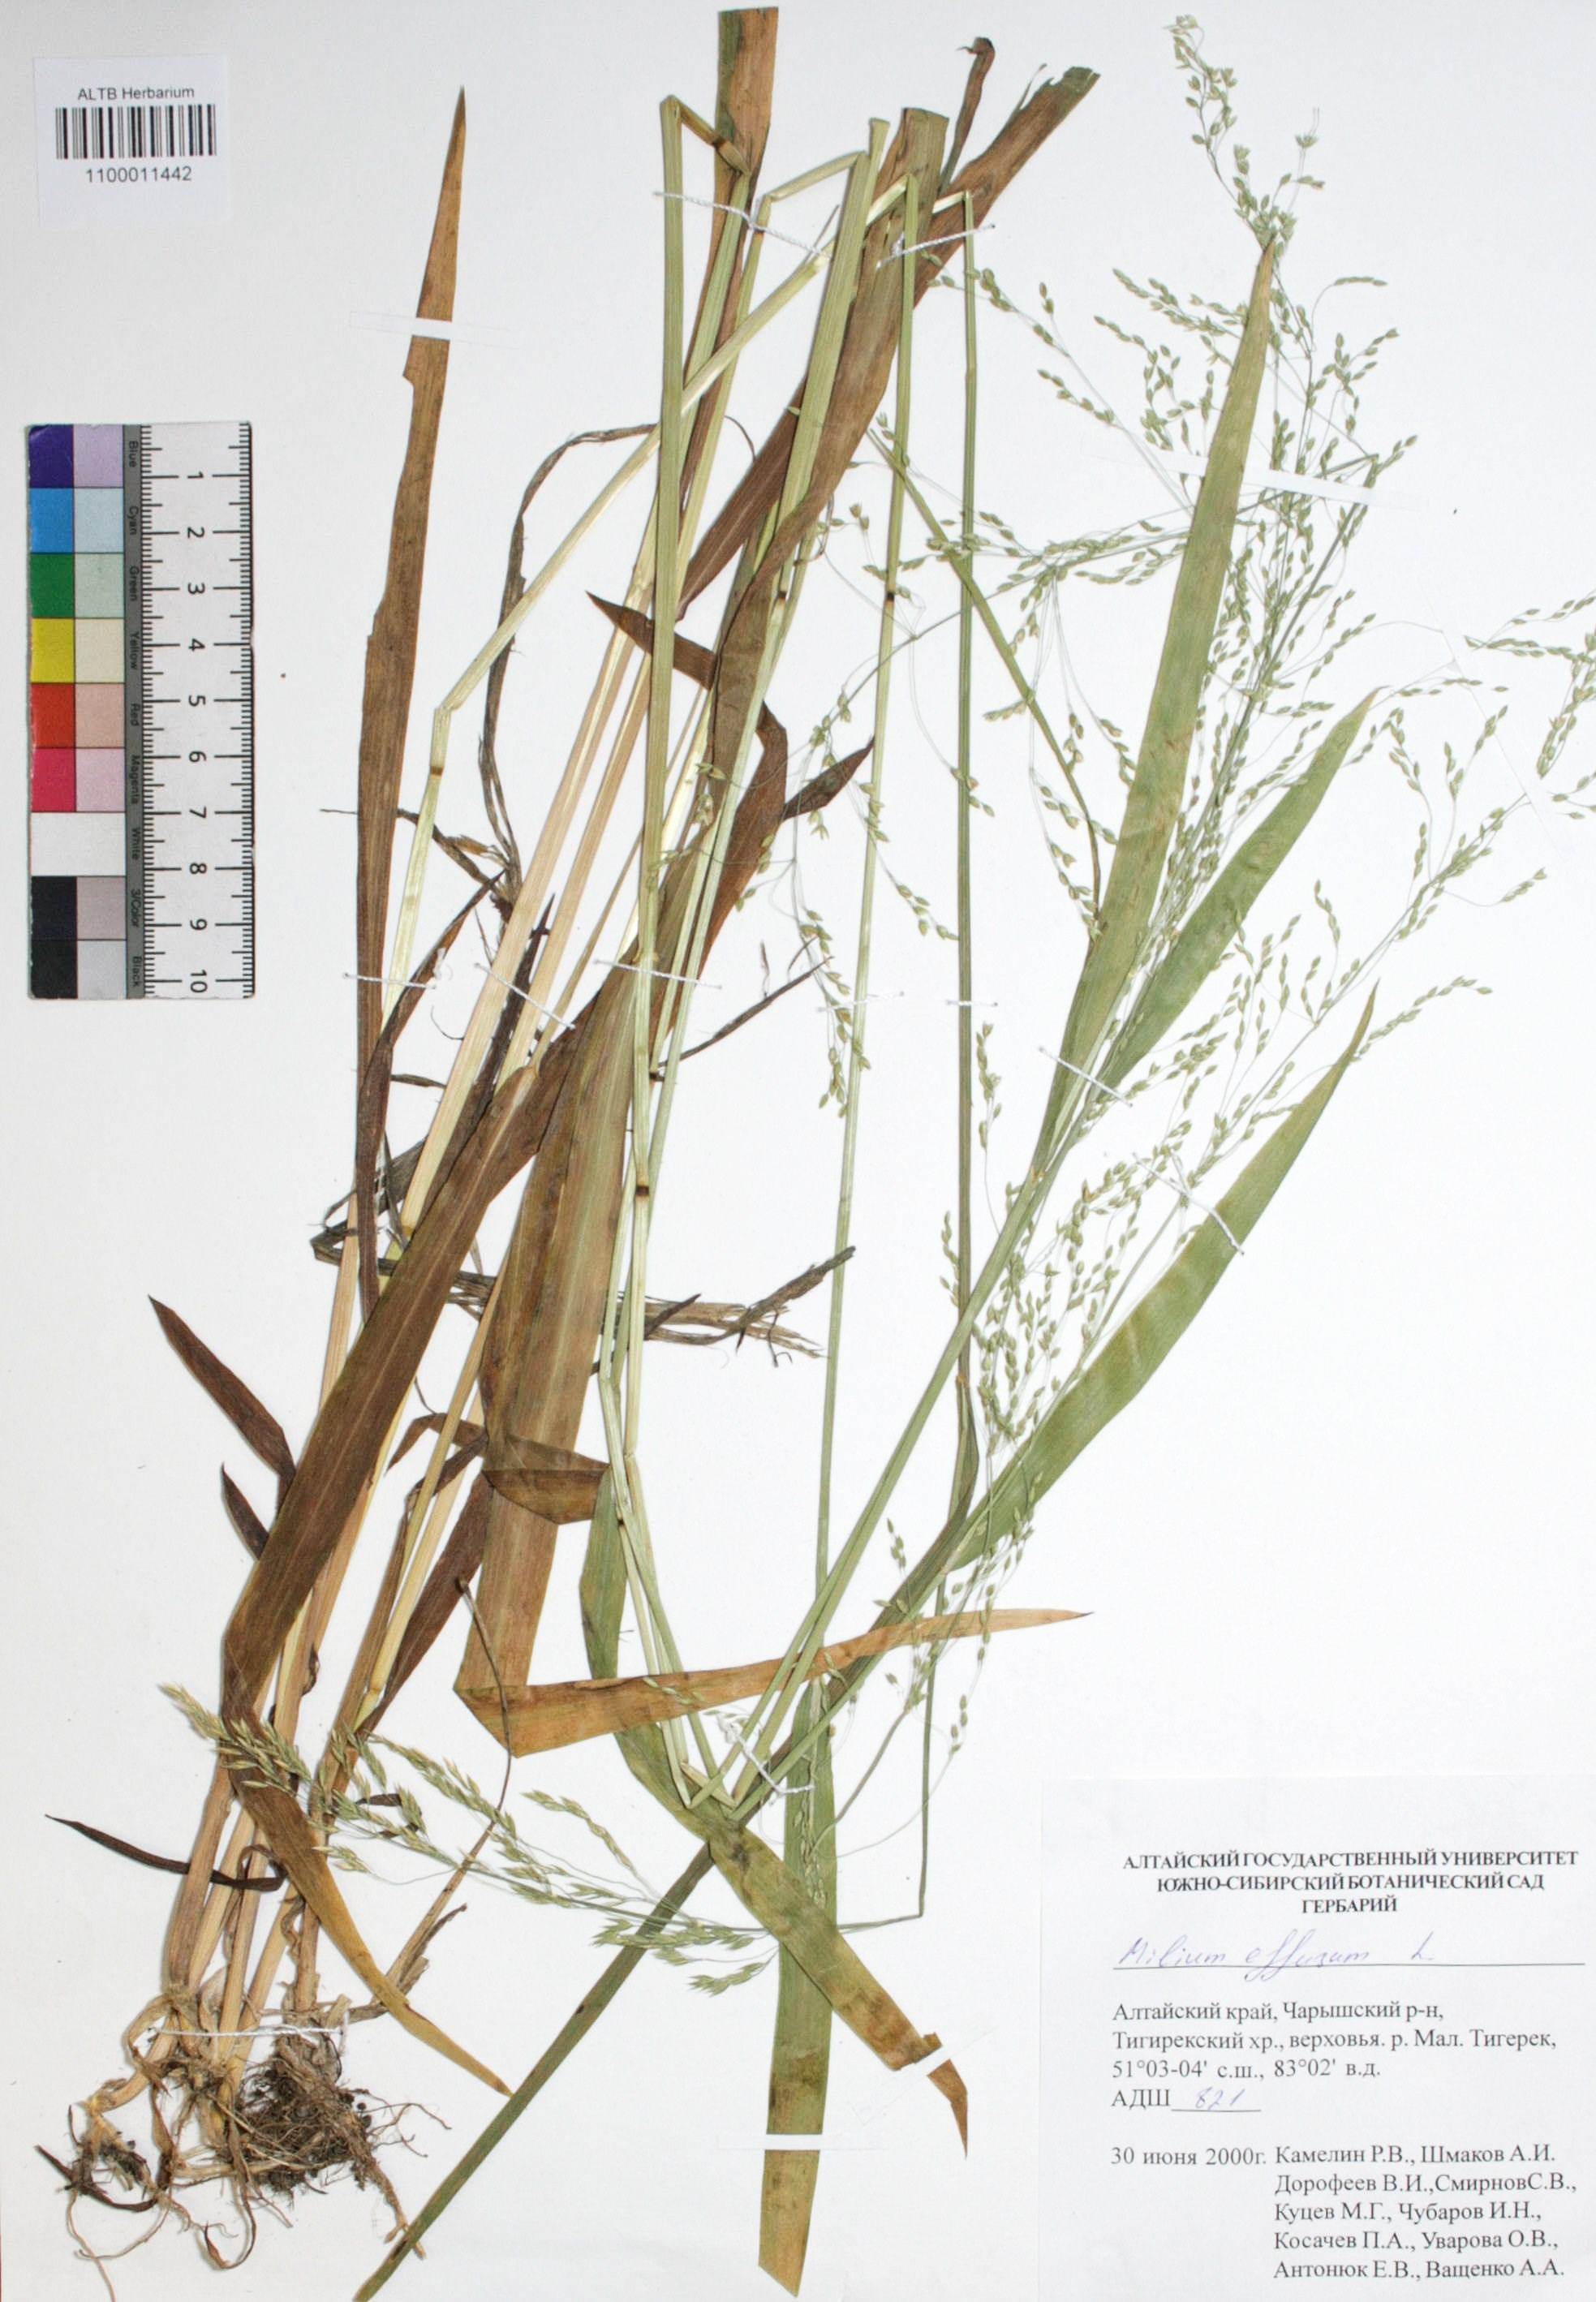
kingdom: Plantae
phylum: Tracheophyta
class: Liliopsida
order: Poales
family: Poaceae
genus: Milium
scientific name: Milium effusum
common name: Wood millet
